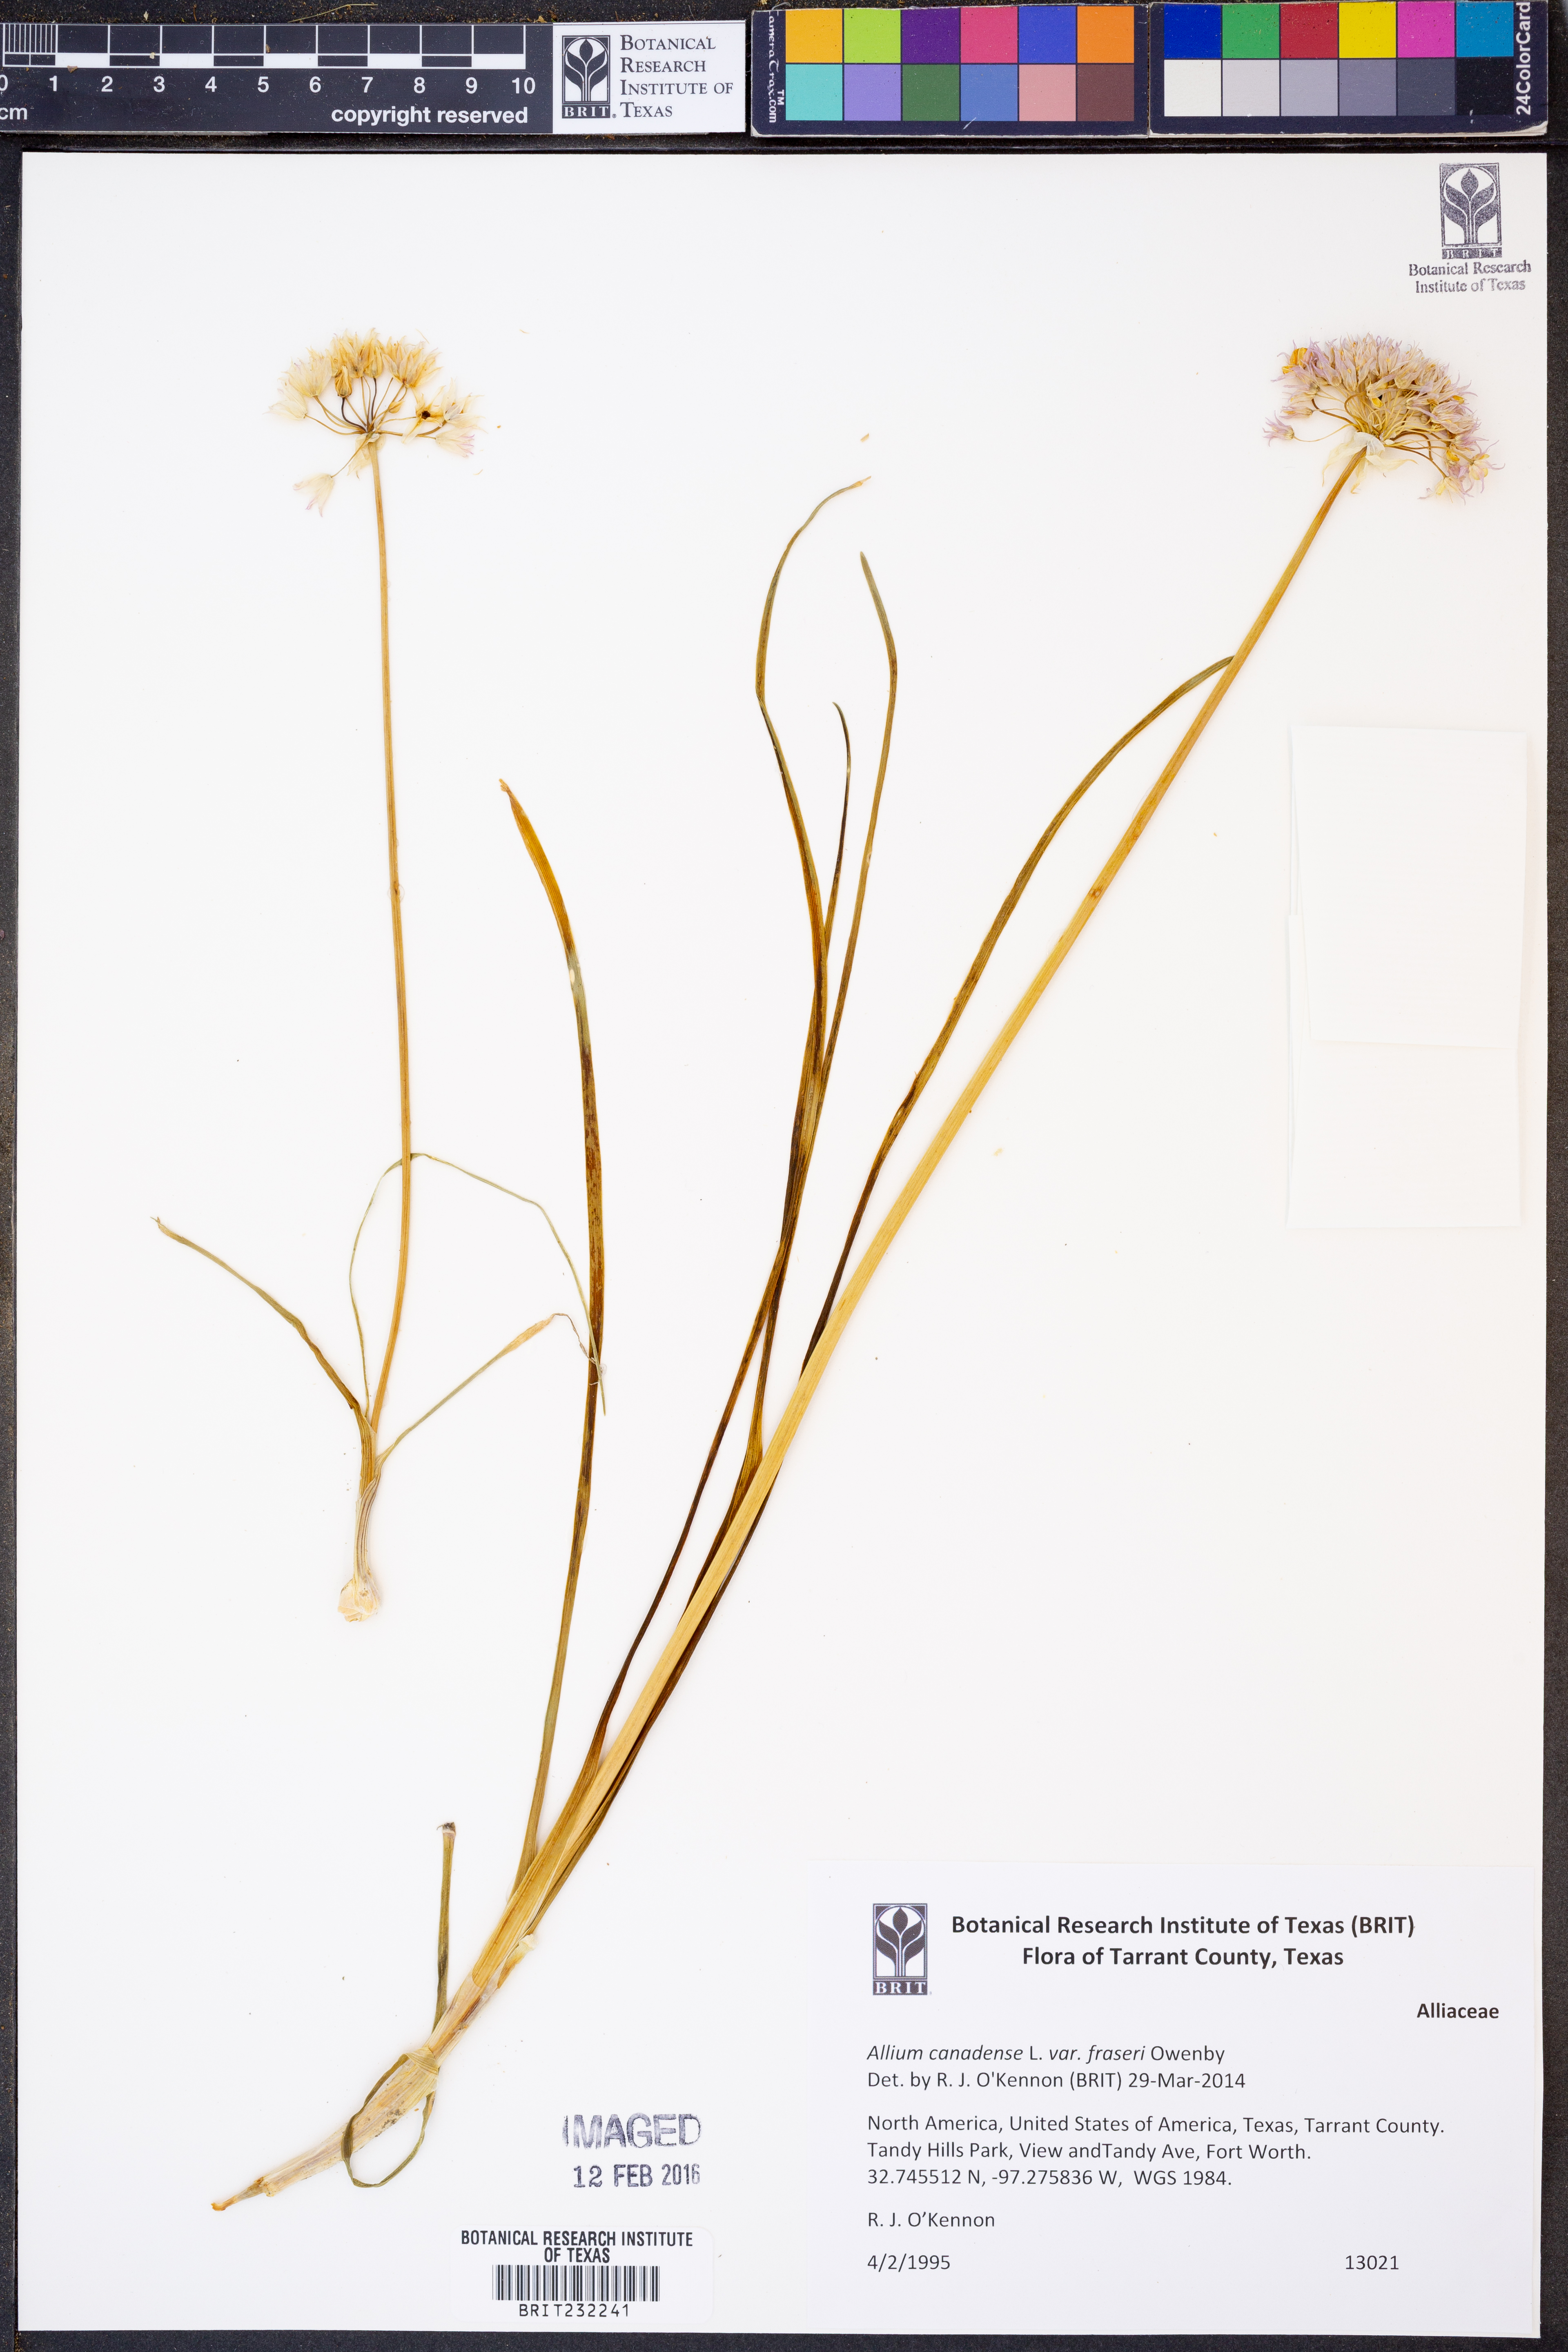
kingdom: Plantae
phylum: Tracheophyta
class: Liliopsida
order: Asparagales
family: Amaryllidaceae
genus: Allium
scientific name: Allium fraseri
